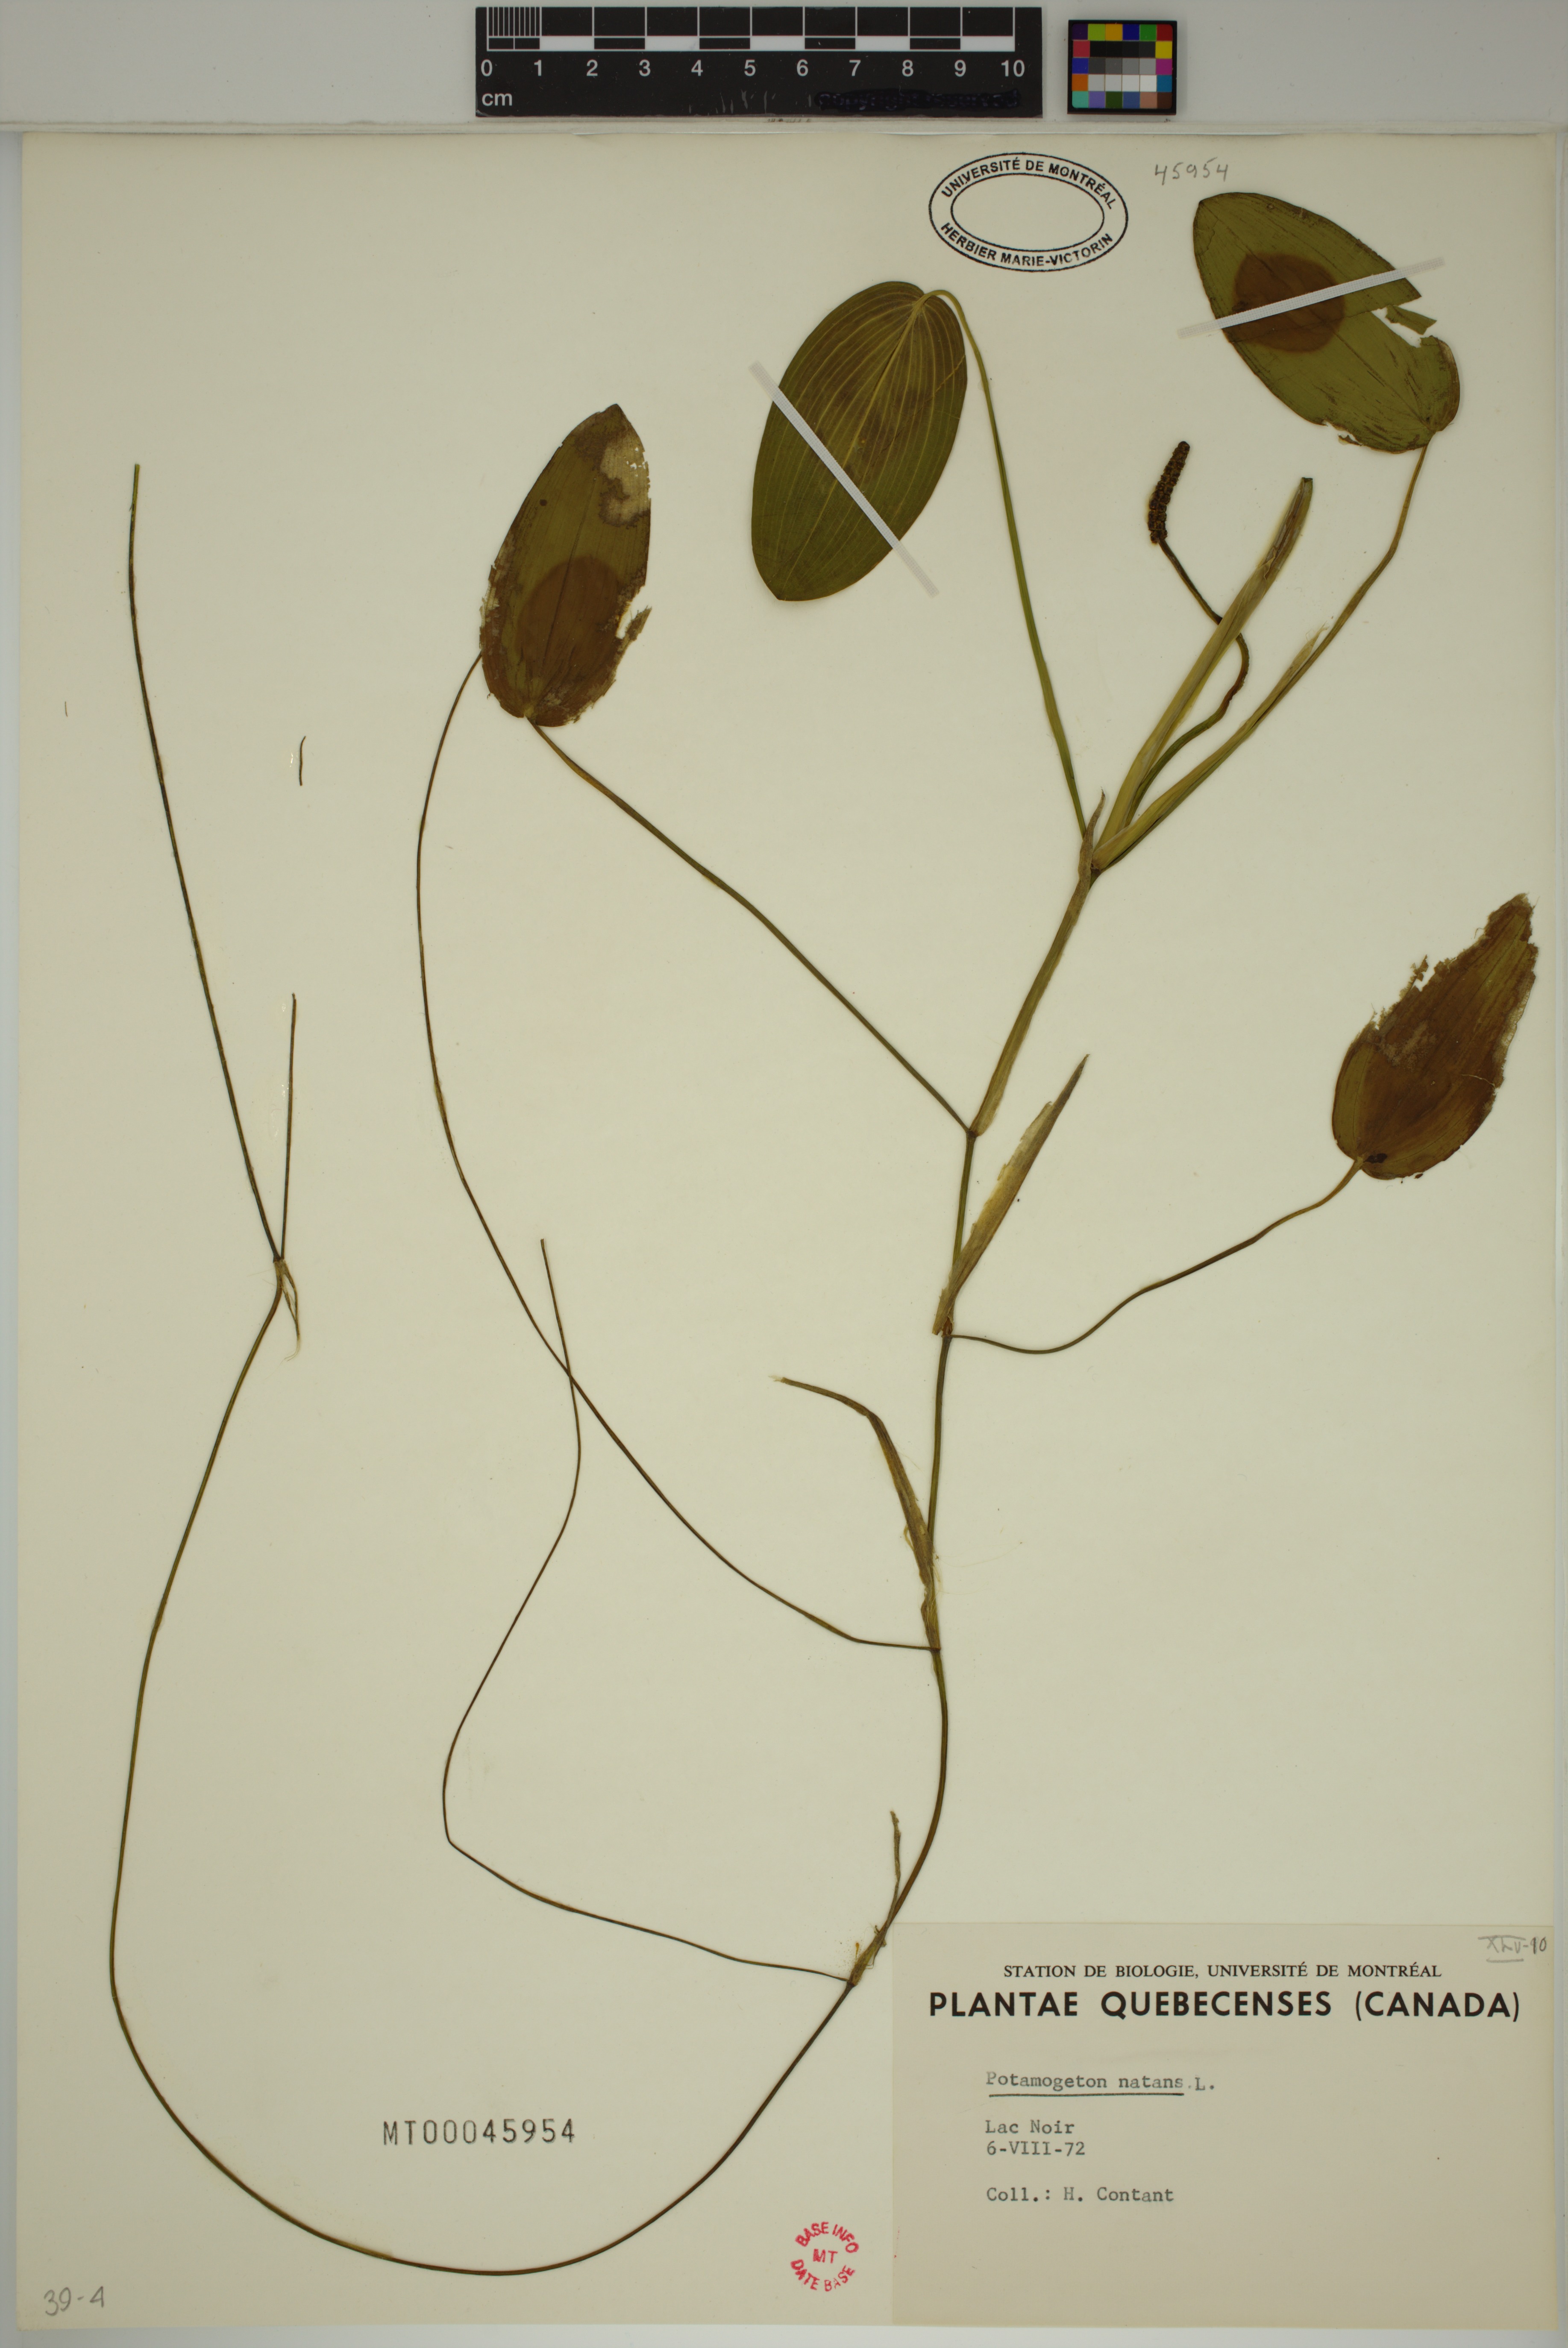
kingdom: Plantae
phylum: Tracheophyta
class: Liliopsida
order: Alismatales
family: Potamogetonaceae
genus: Potamogeton
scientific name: Potamogeton natans
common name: Broad-leaved pondweed
